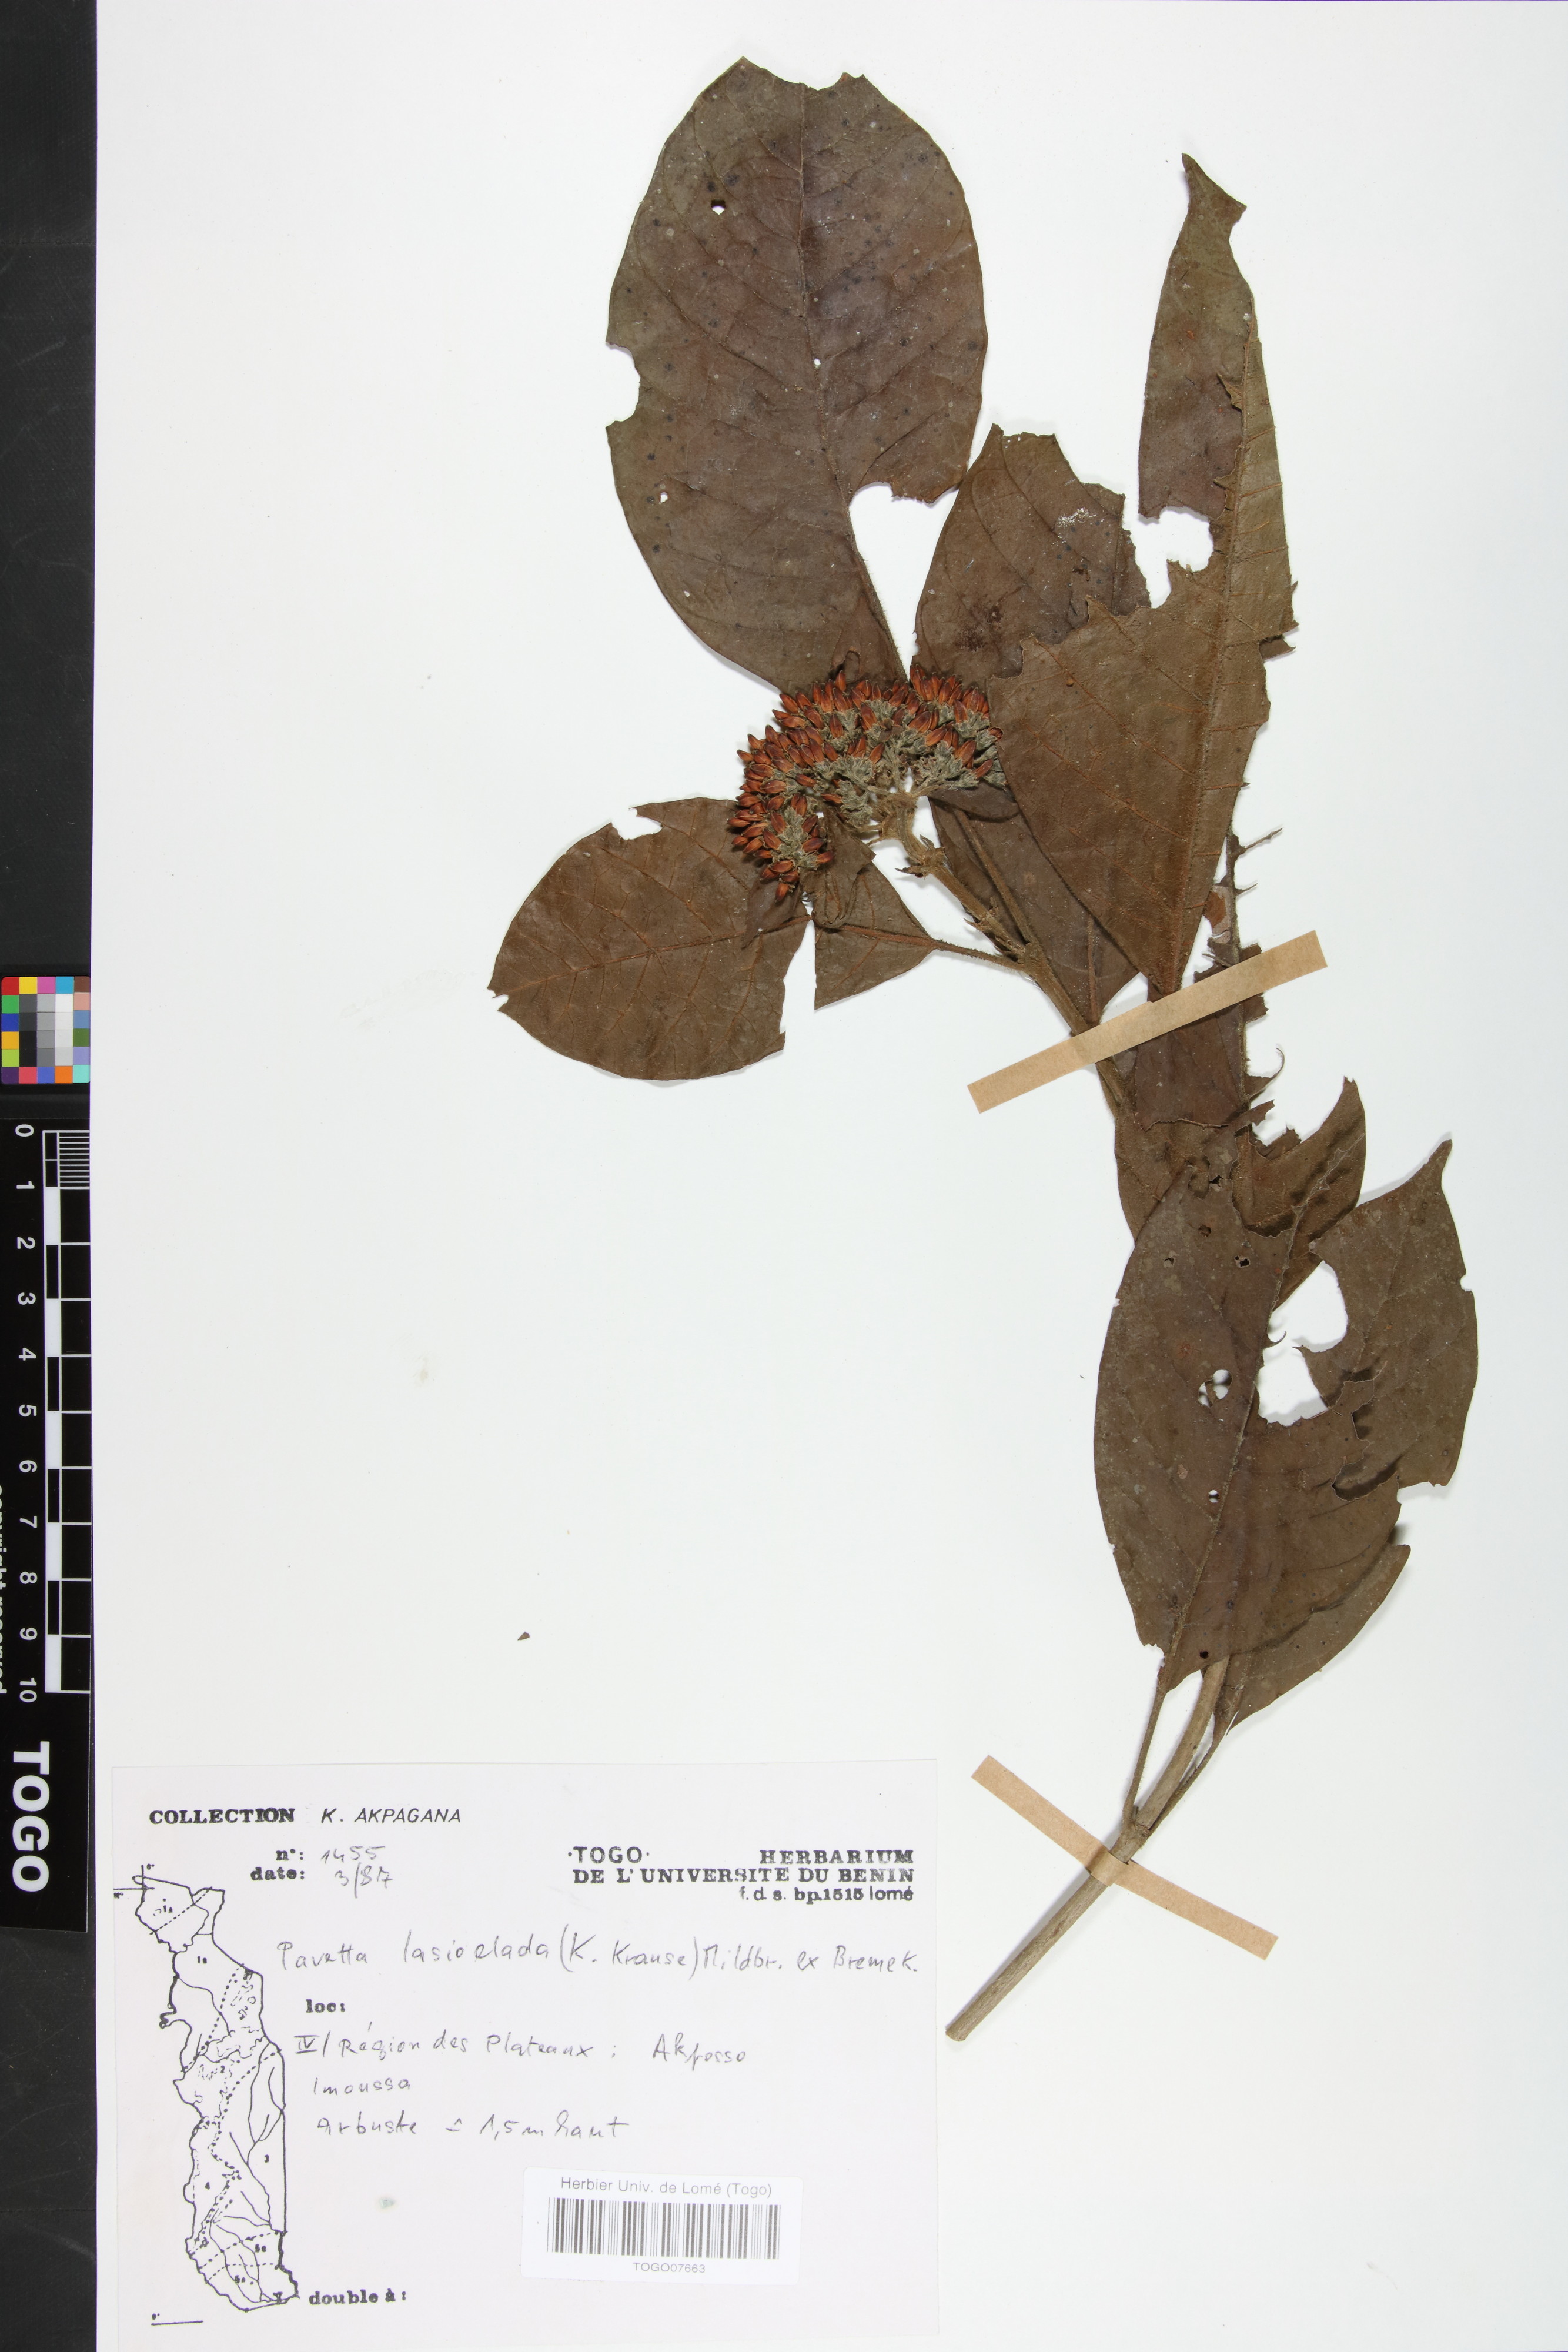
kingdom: Plantae
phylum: Tracheophyta
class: Magnoliopsida
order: Gentianales
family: Rubiaceae
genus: Pavetta
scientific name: Pavetta lasioclada
